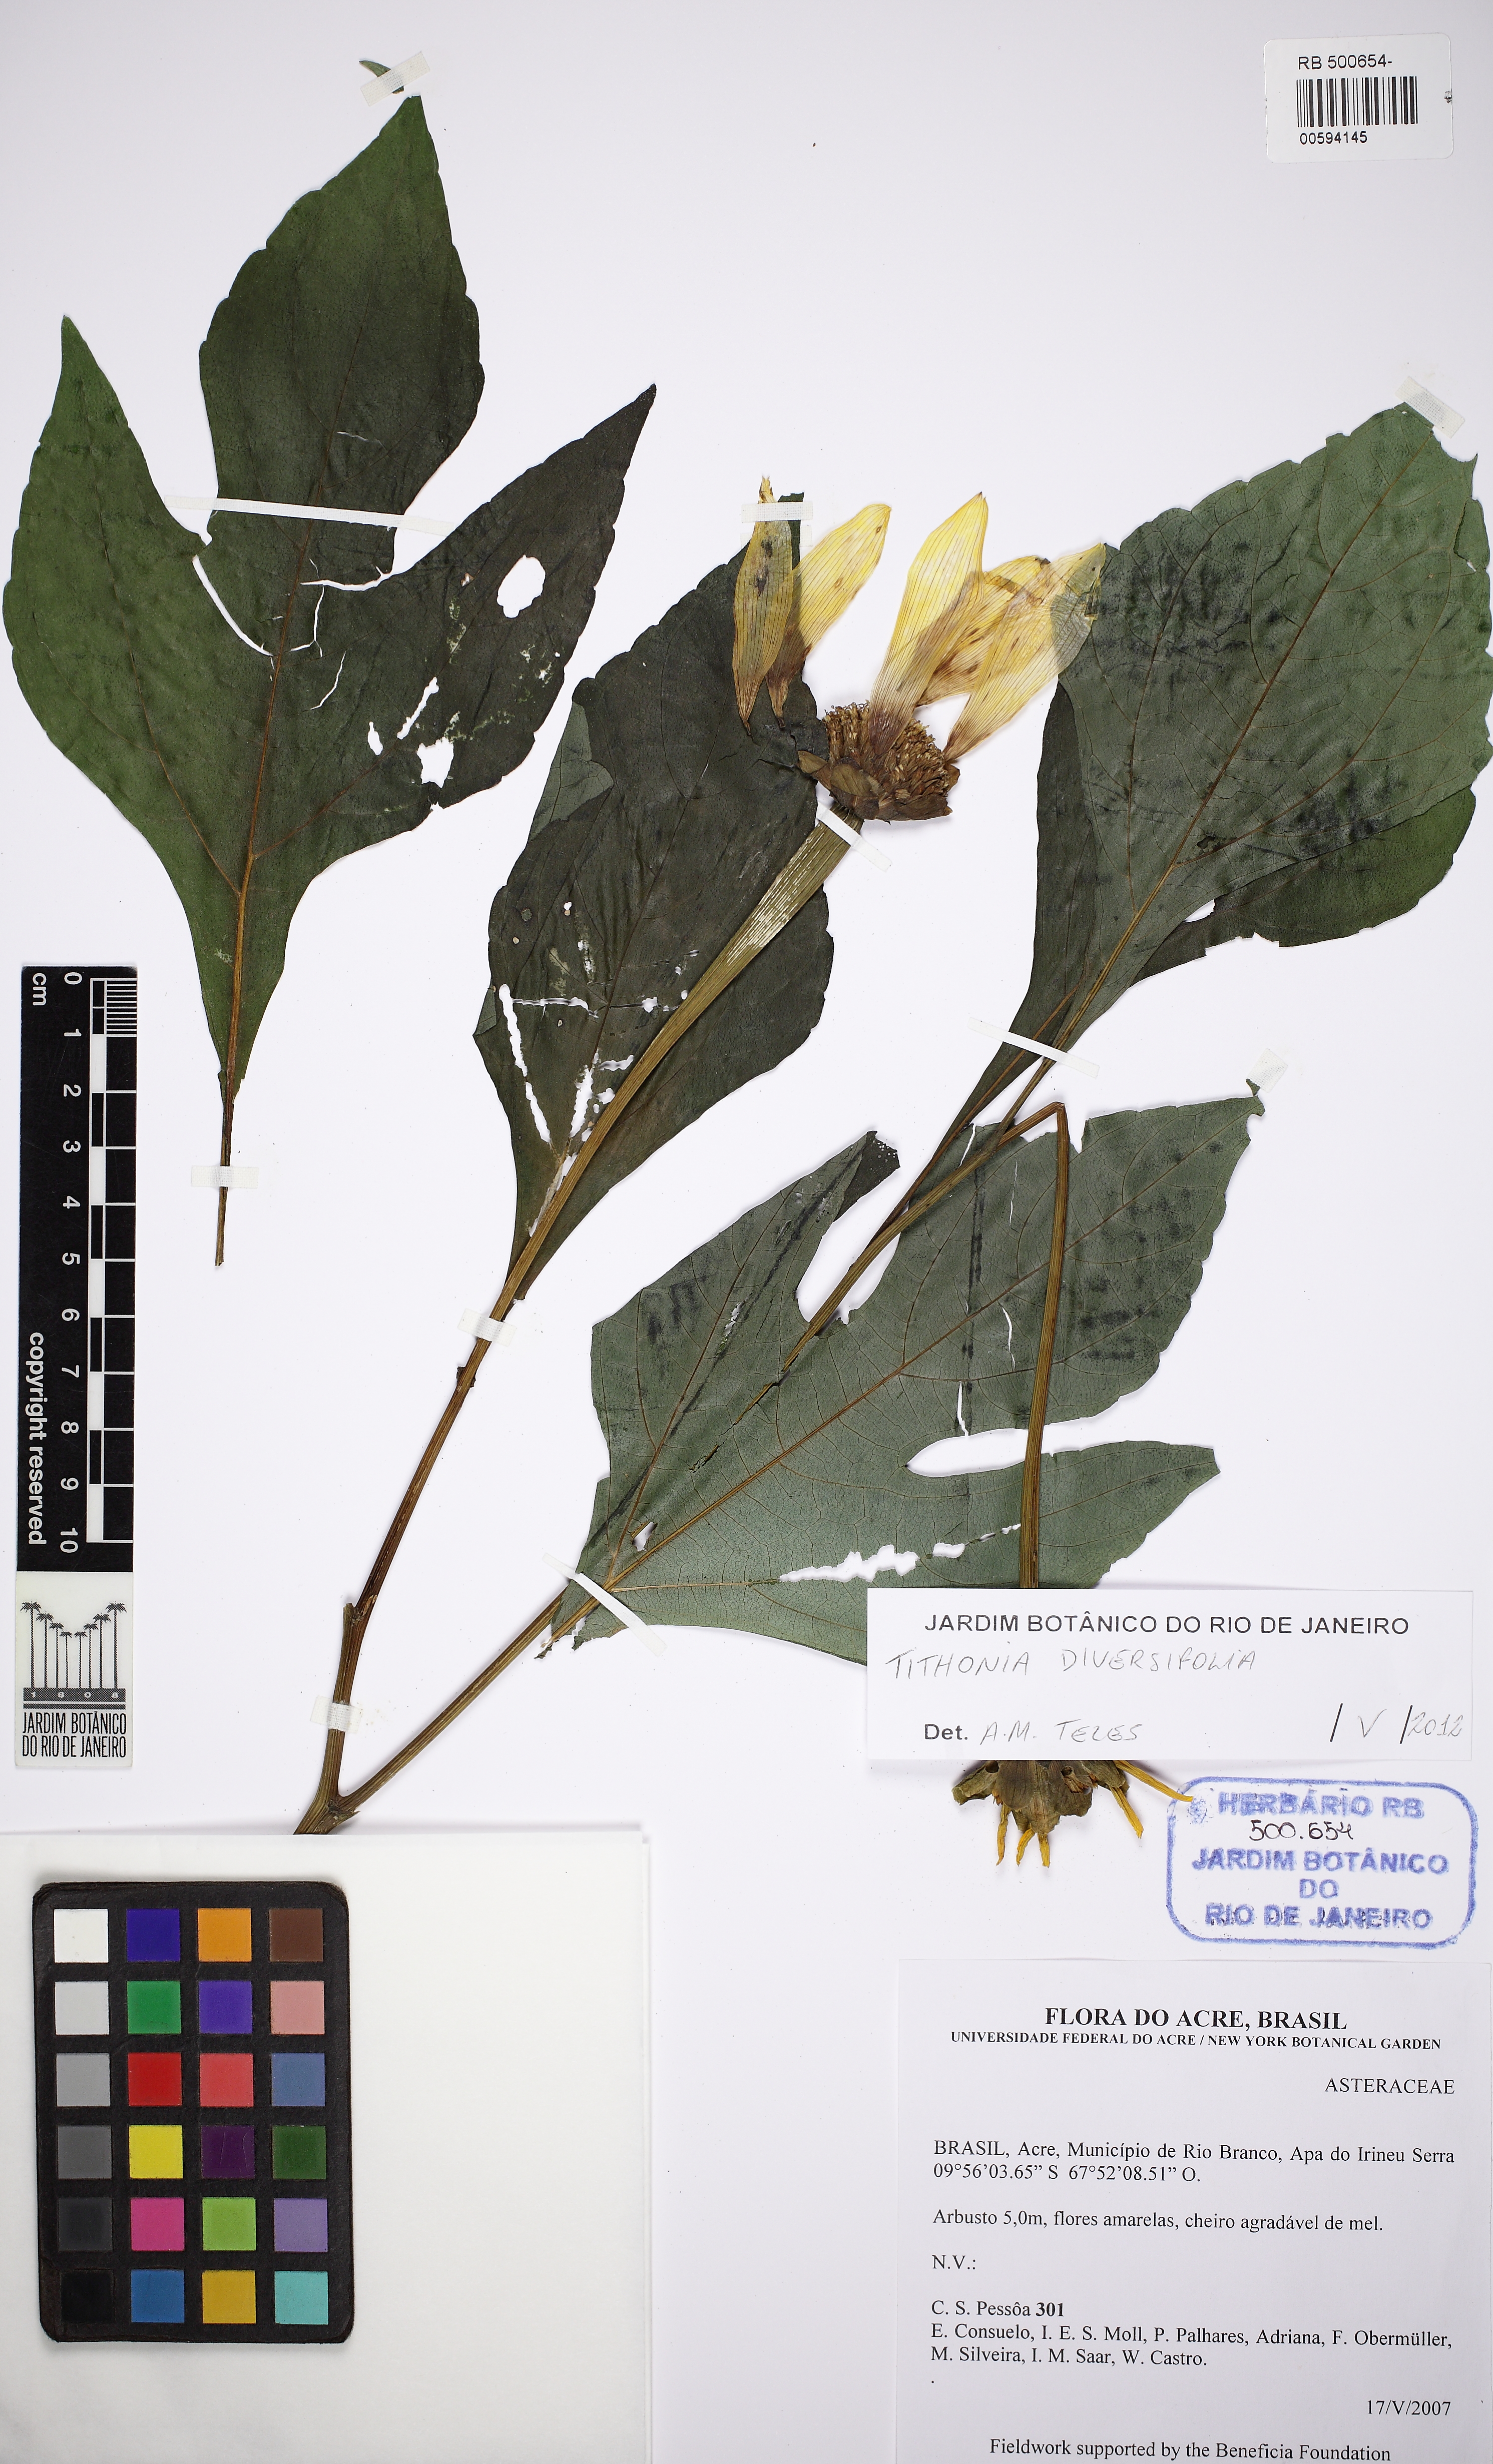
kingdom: Plantae
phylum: Tracheophyta
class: Magnoliopsida
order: Asterales
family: Asteraceae
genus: Tithonia
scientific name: Tithonia diversifolia
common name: Tree marigold
